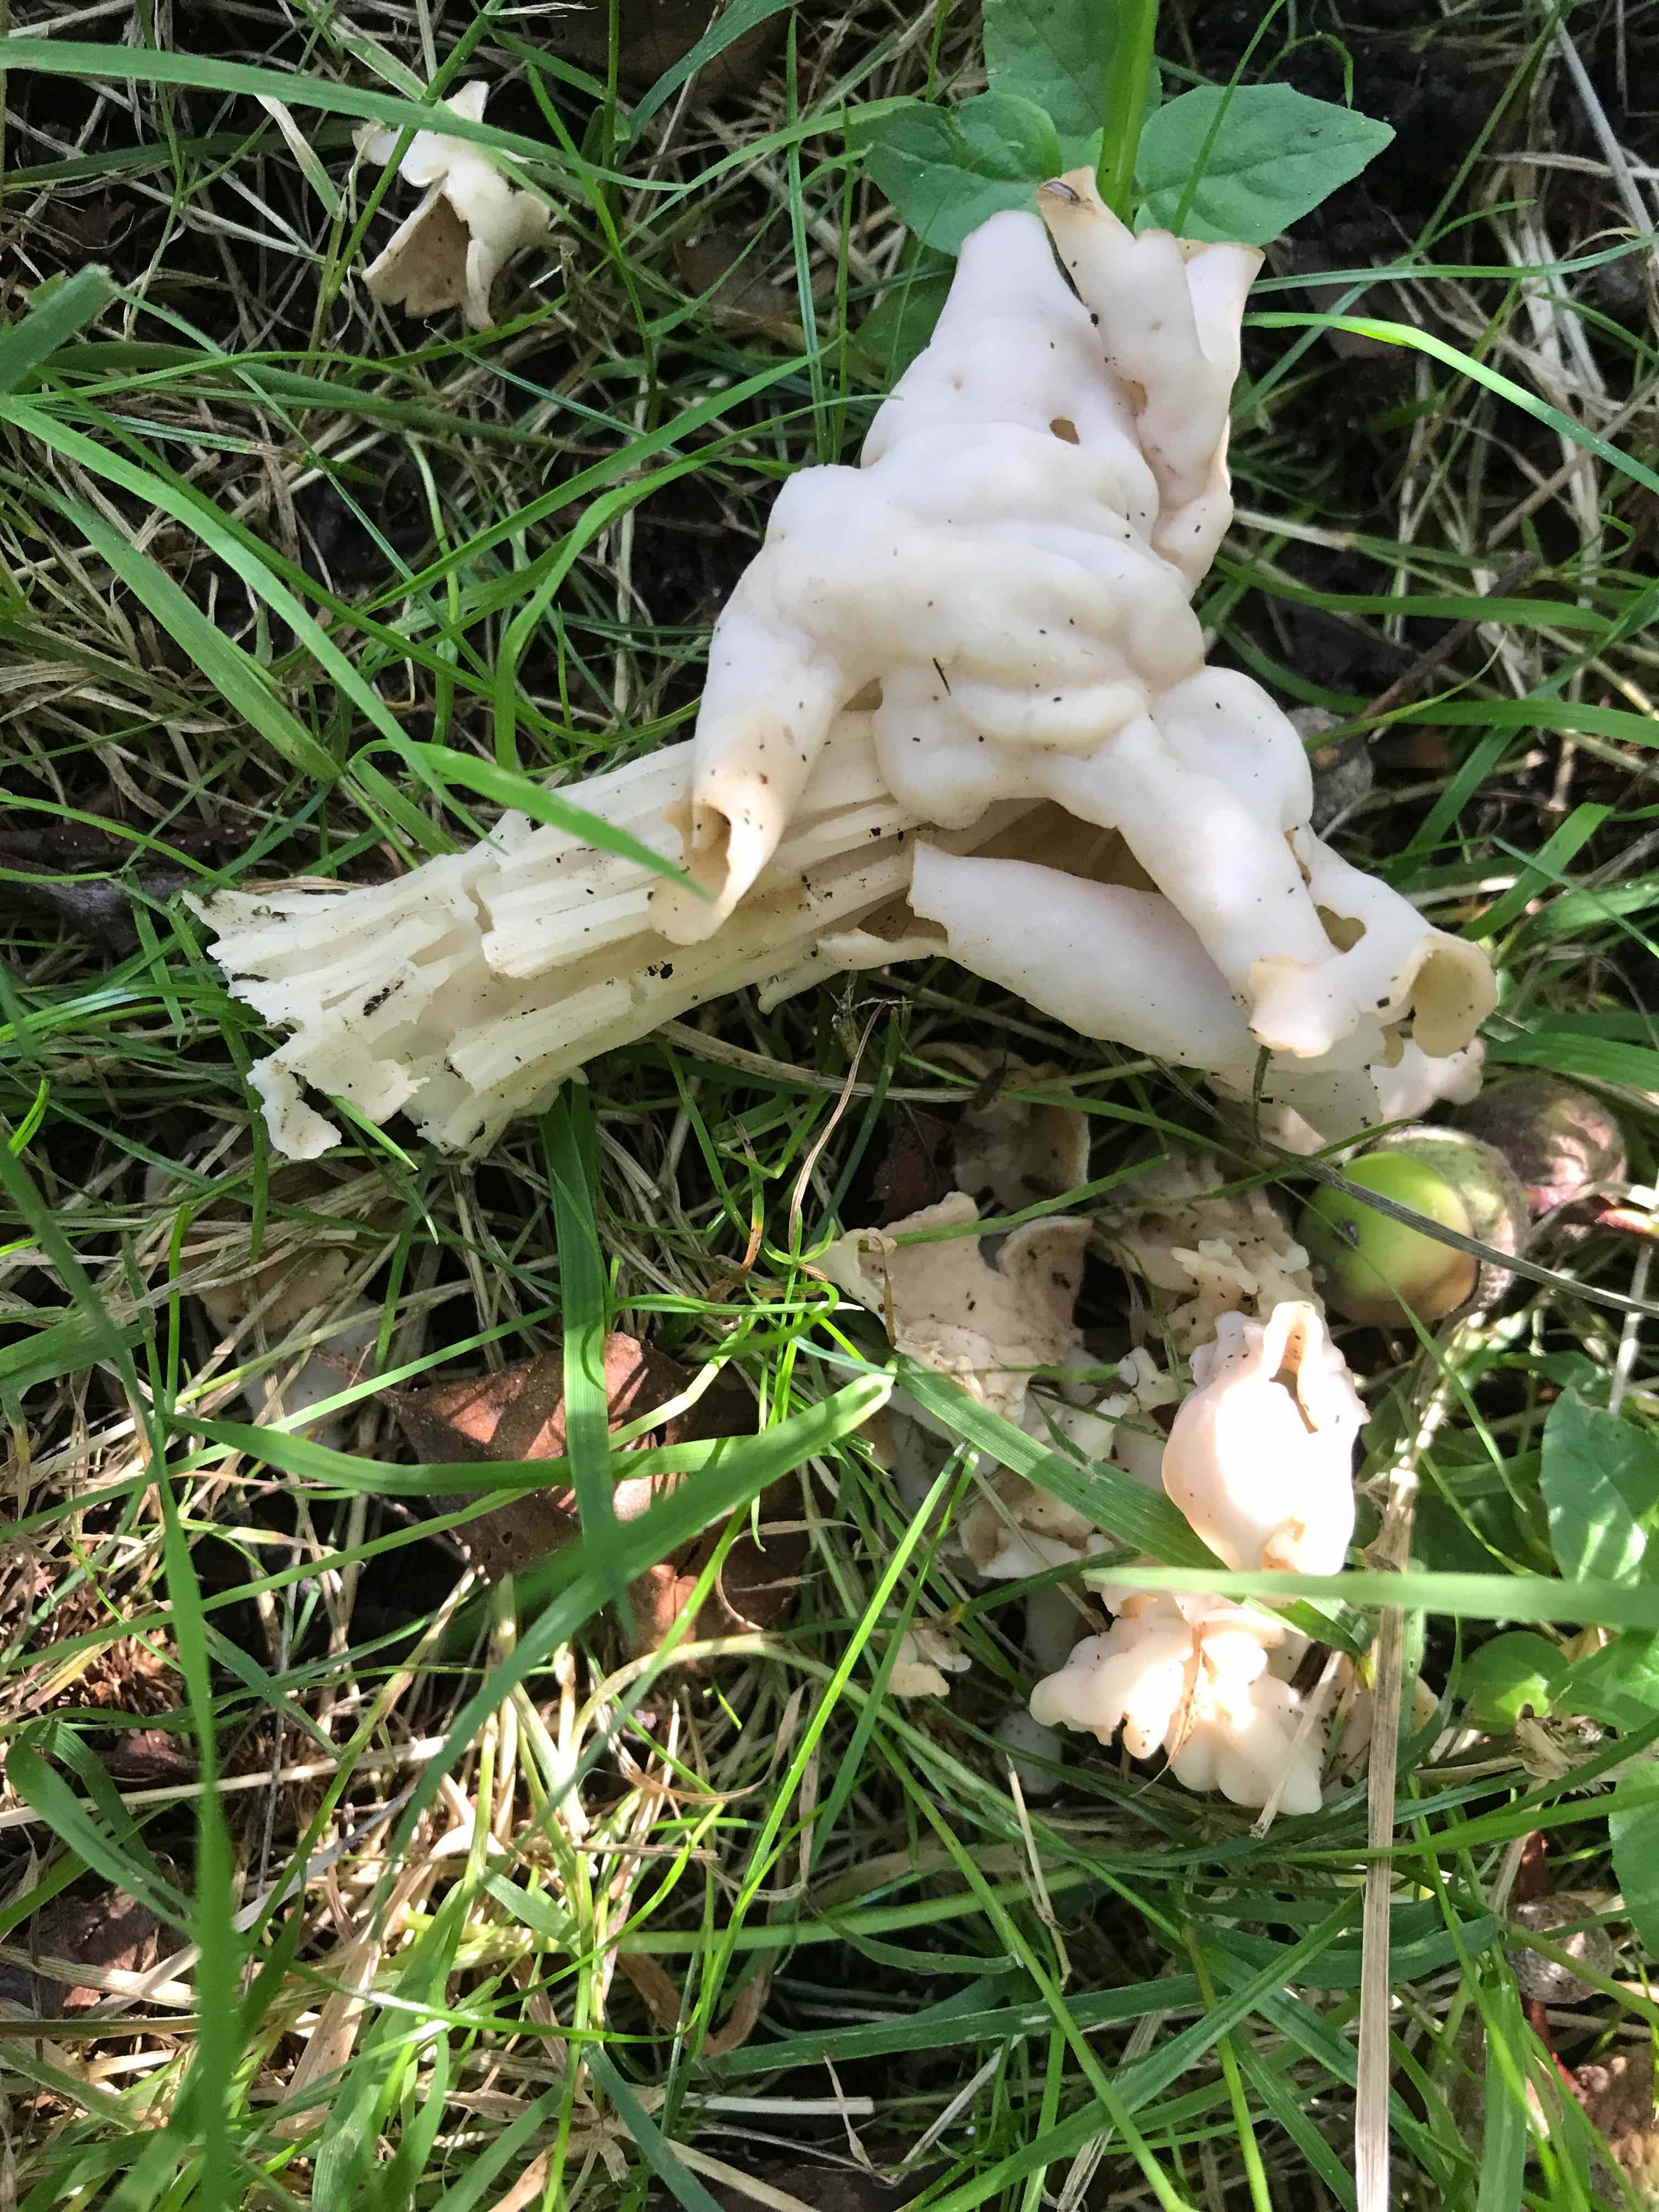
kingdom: Fungi
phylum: Ascomycota
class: Pezizomycetes
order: Pezizales
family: Helvellaceae
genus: Helvella
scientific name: Helvella crispa
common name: kruset foldhat
